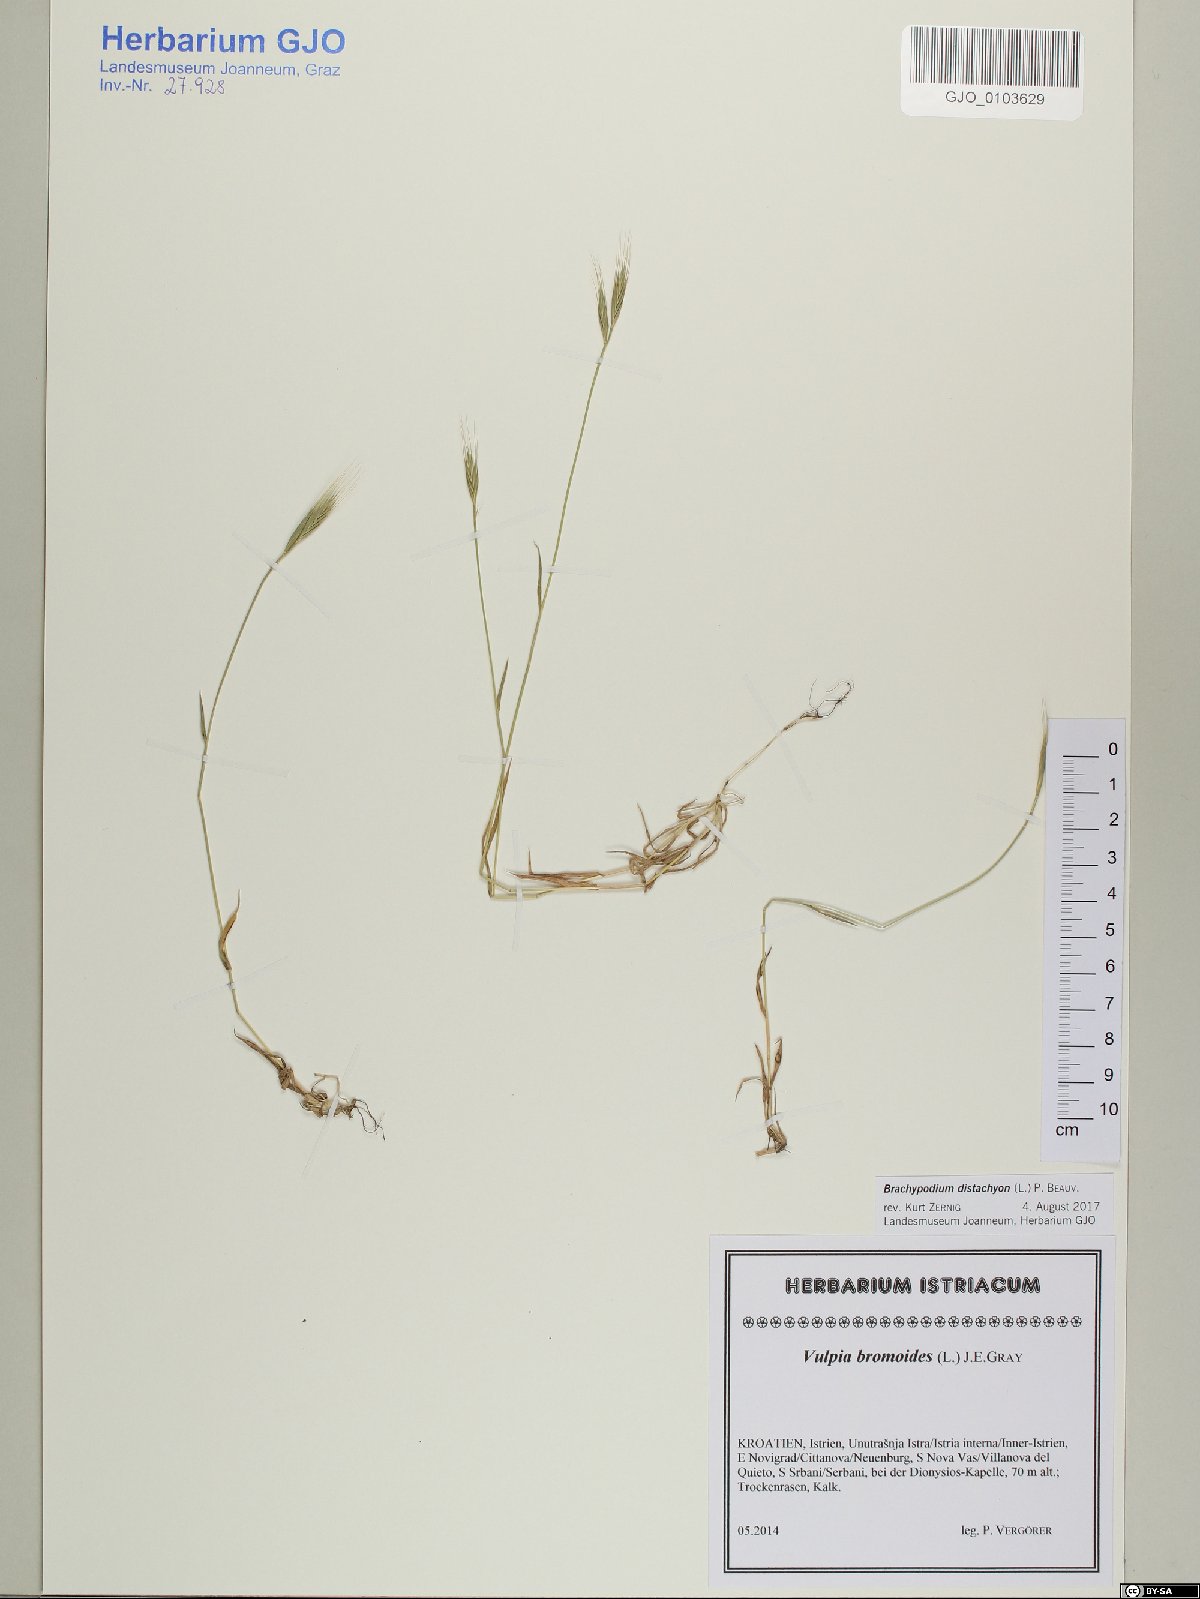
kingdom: Plantae
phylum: Tracheophyta
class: Liliopsida
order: Poales
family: Poaceae
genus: Brachypodium
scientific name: Brachypodium distachyon
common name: Stiff brome
